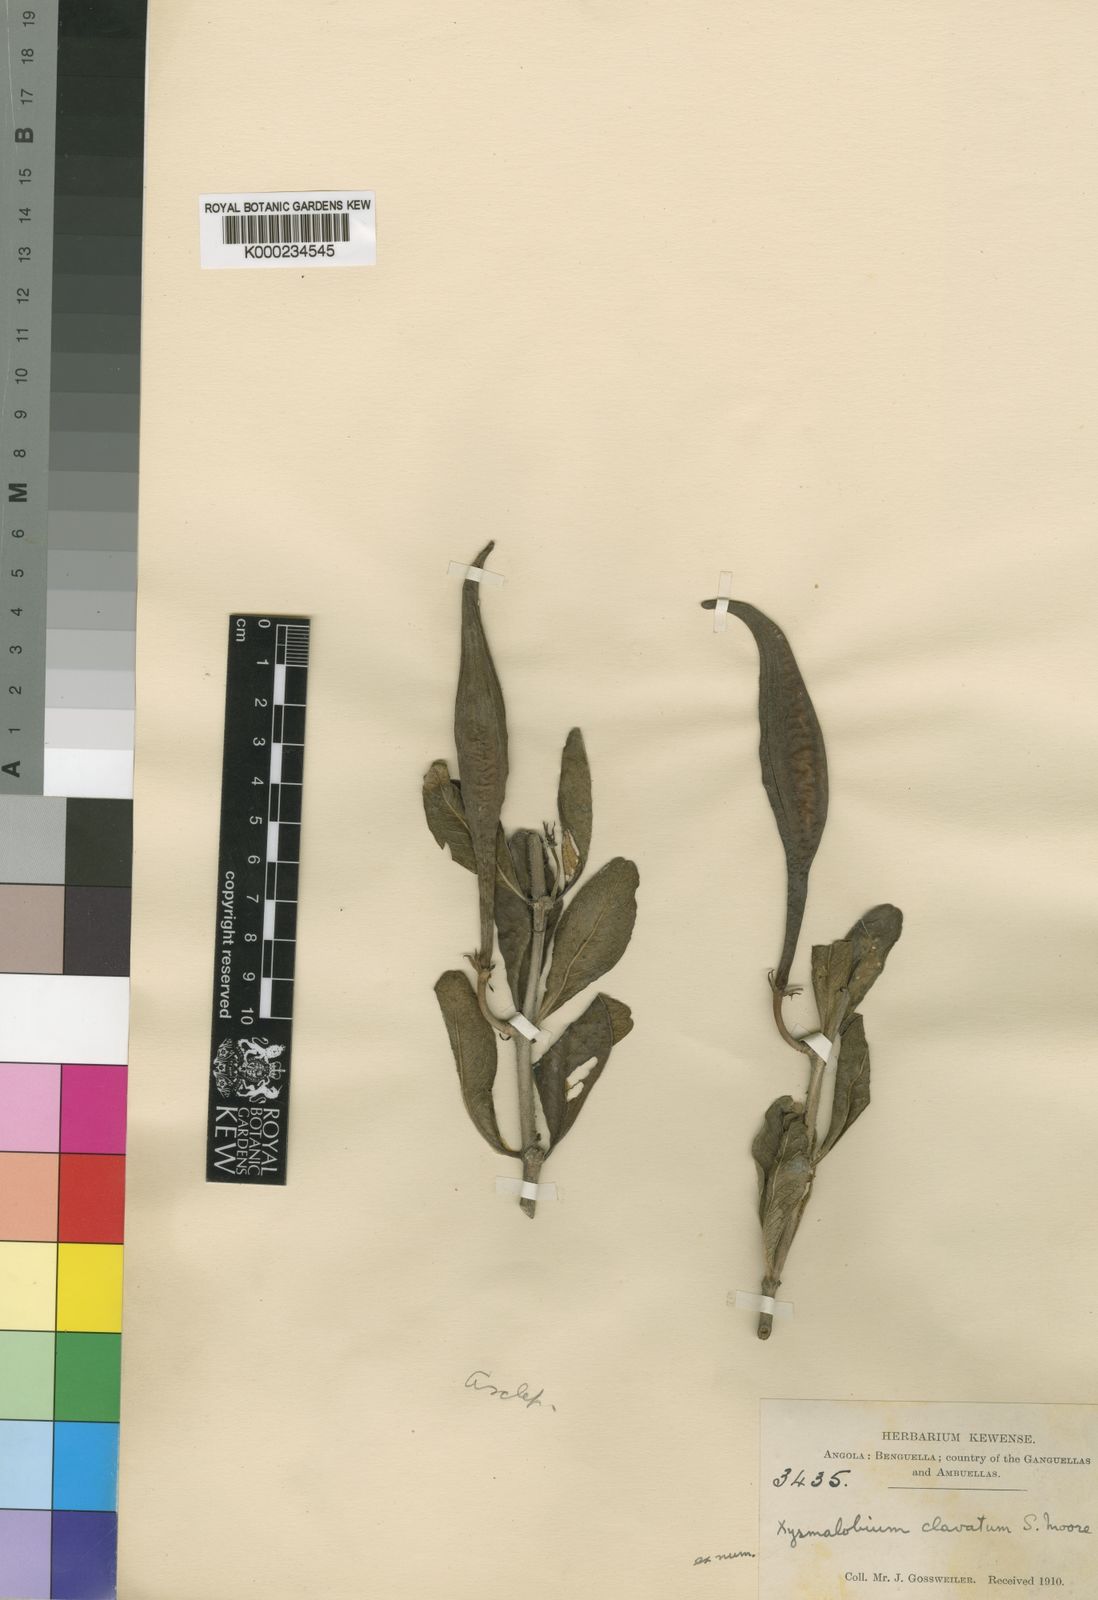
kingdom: Plantae
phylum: Tracheophyta
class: Magnoliopsida
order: Gentianales
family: Apocynaceae
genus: Xysmalobium
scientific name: Xysmalobium rhodesianum
